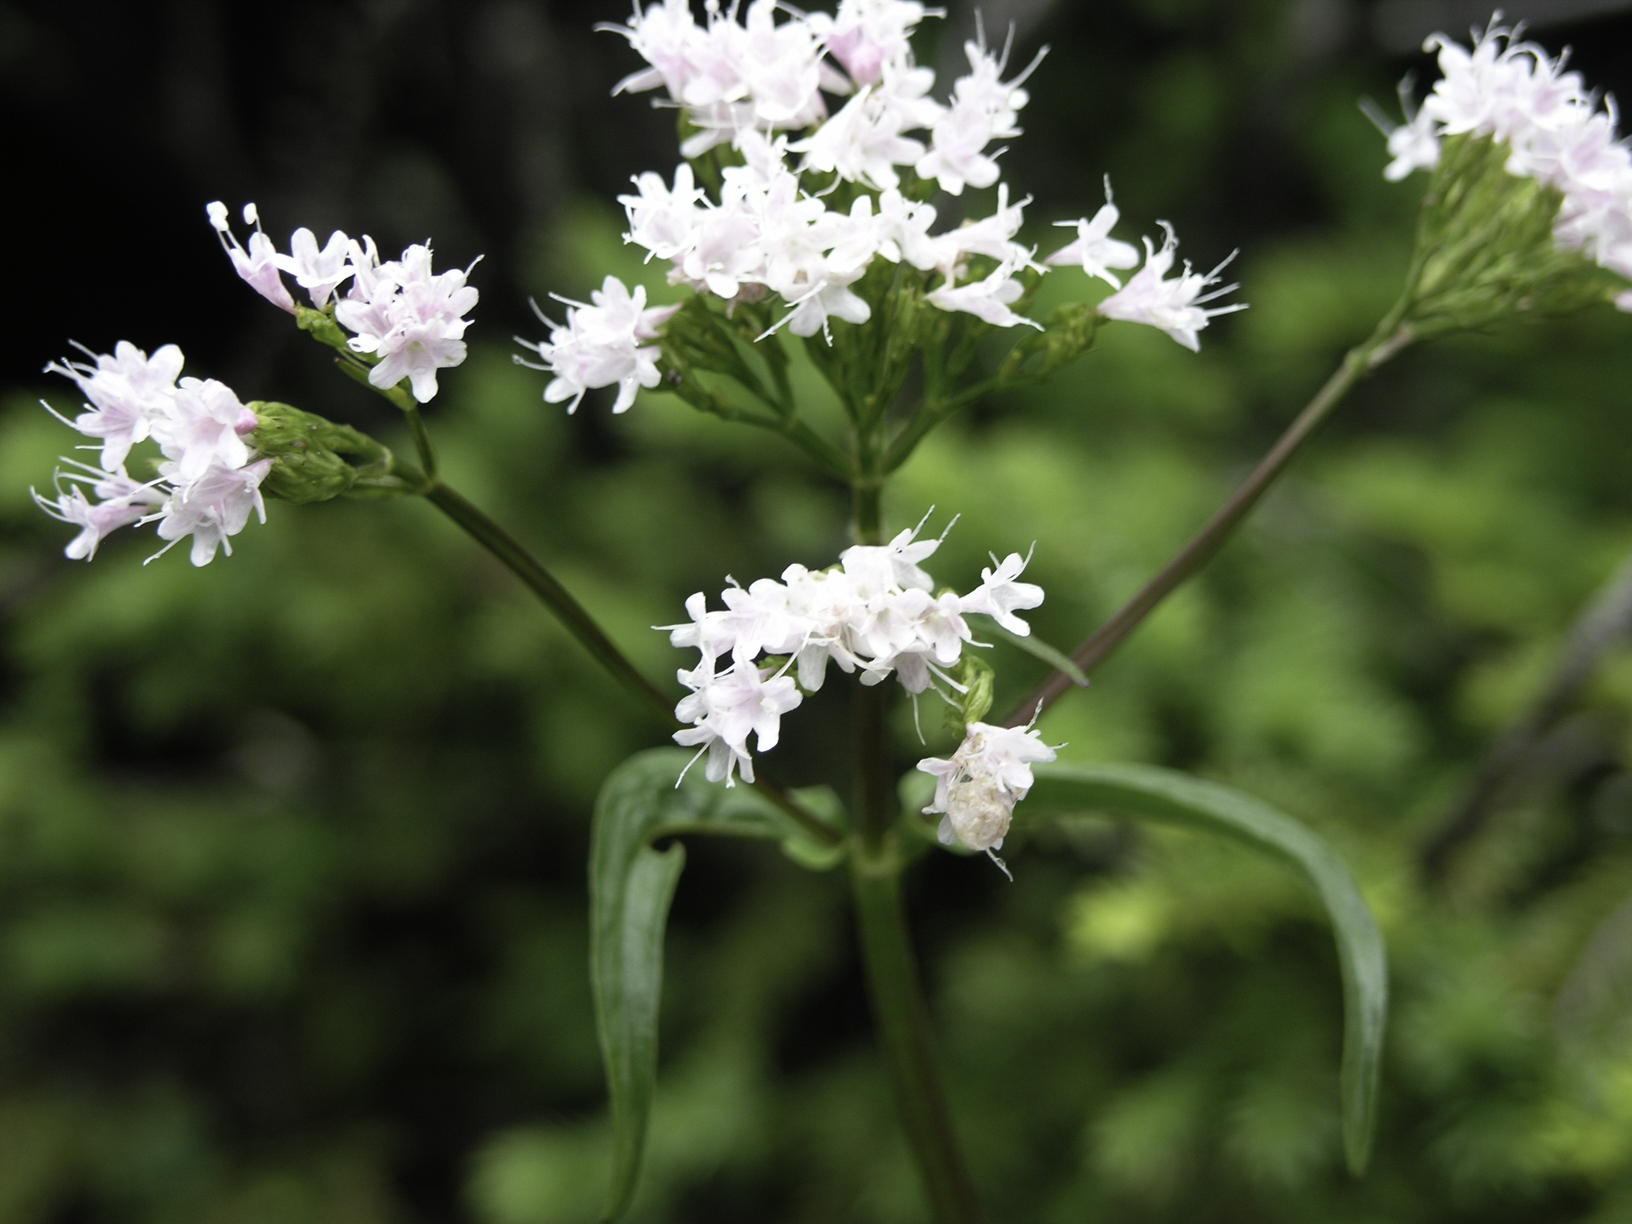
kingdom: Plantae
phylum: Tracheophyta
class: Magnoliopsida
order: Dipsacales
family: Caprifoliaceae
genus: Valeriana
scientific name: Valeriana montana
